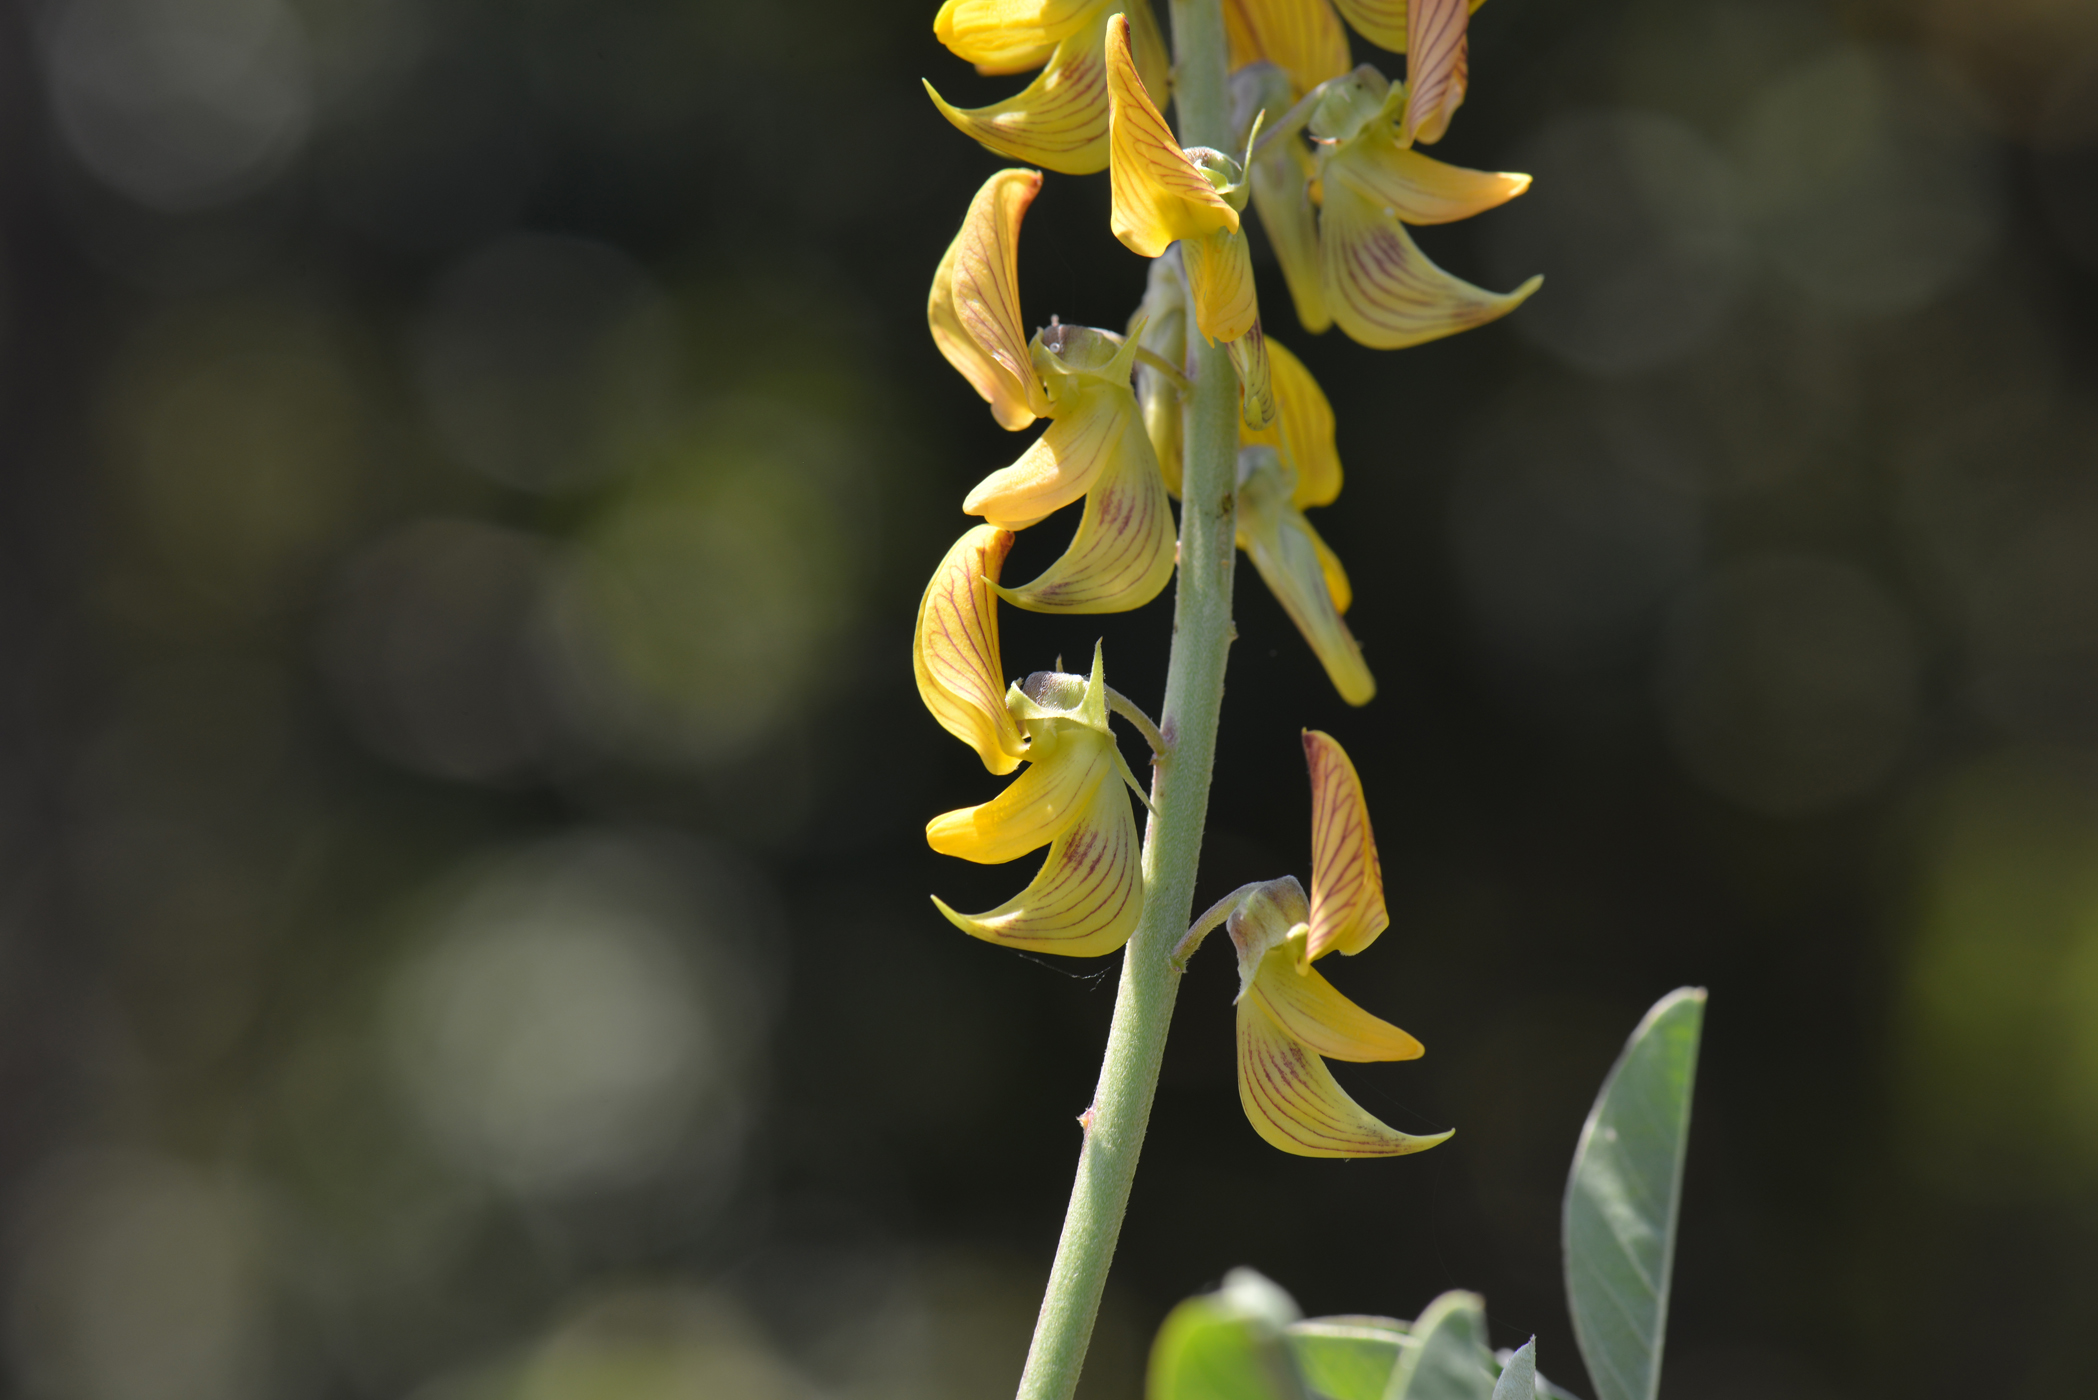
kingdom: Plantae
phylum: Tracheophyta
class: Magnoliopsida
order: Fabales
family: Fabaceae
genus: Crotalaria
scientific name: Crotalaria pallida
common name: Smooth rattlebox
